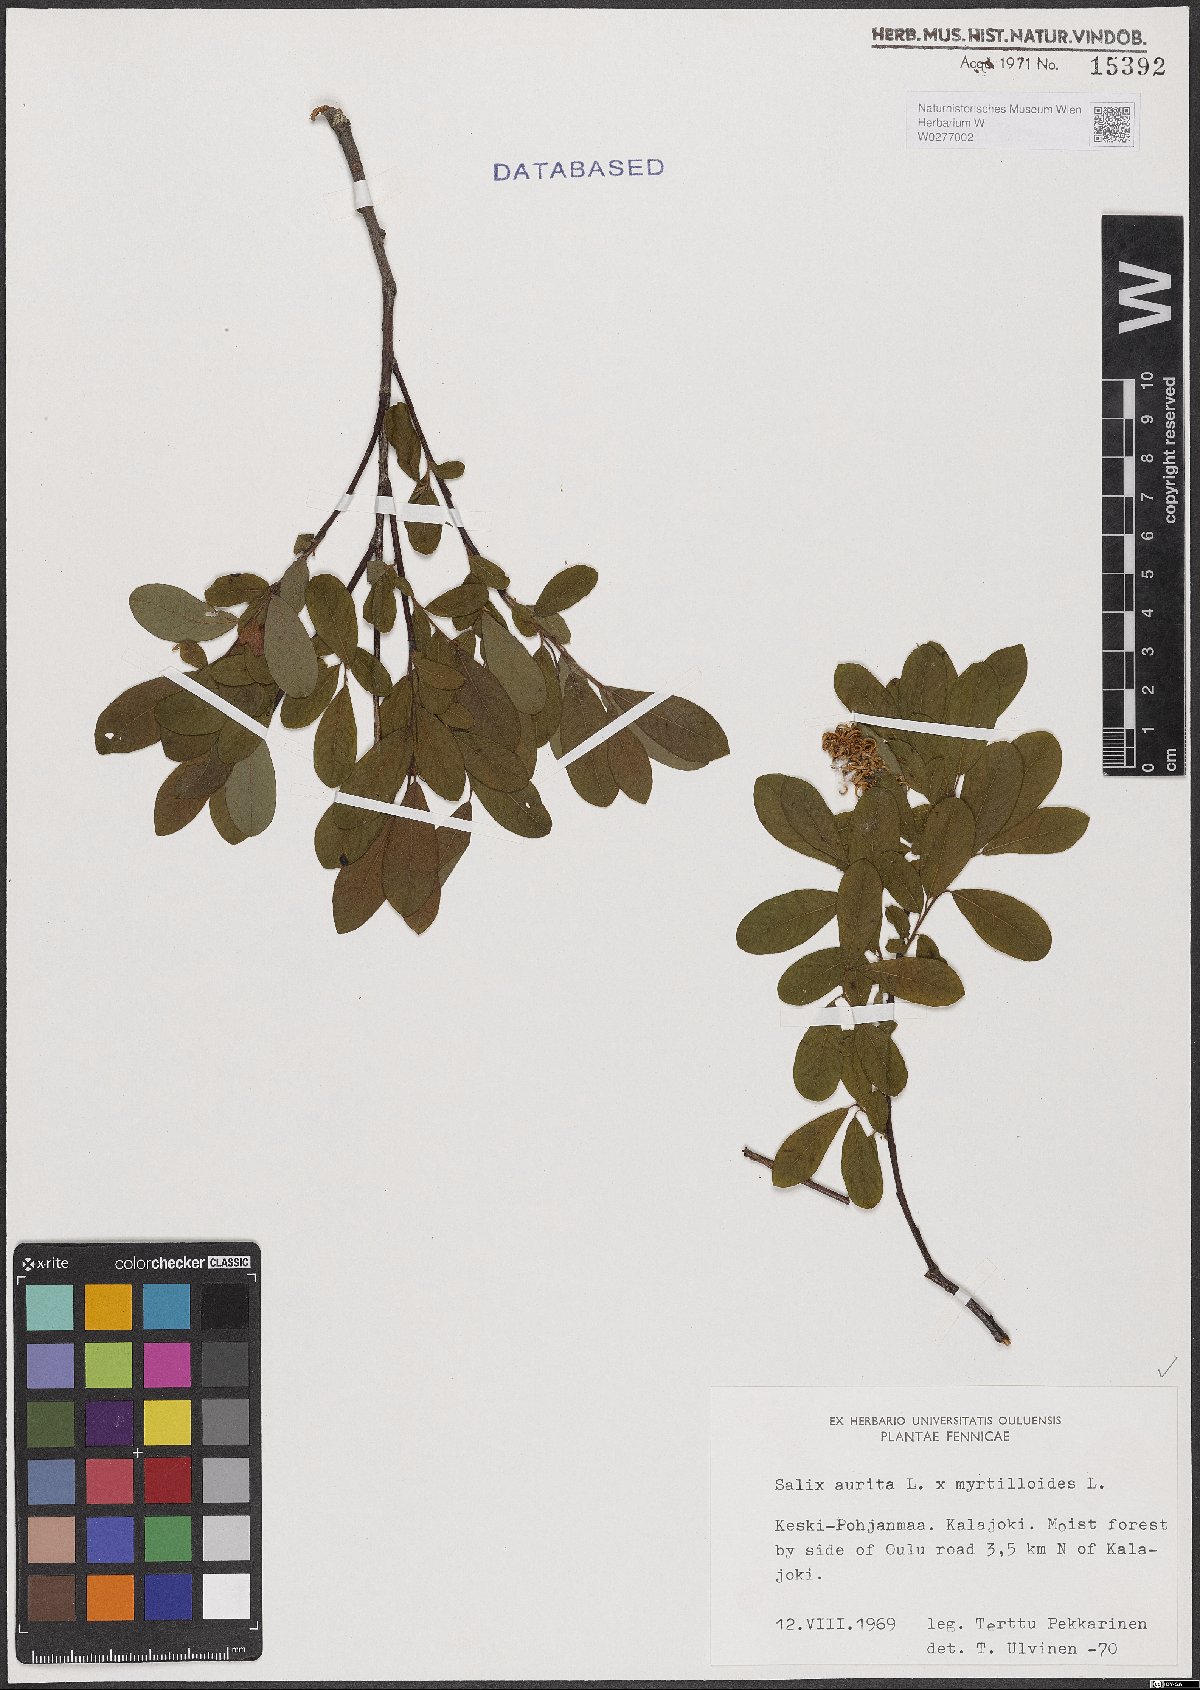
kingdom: Plantae
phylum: Tracheophyta
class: Magnoliopsida
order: Malpighiales
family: Salicaceae
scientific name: Salicaceae
